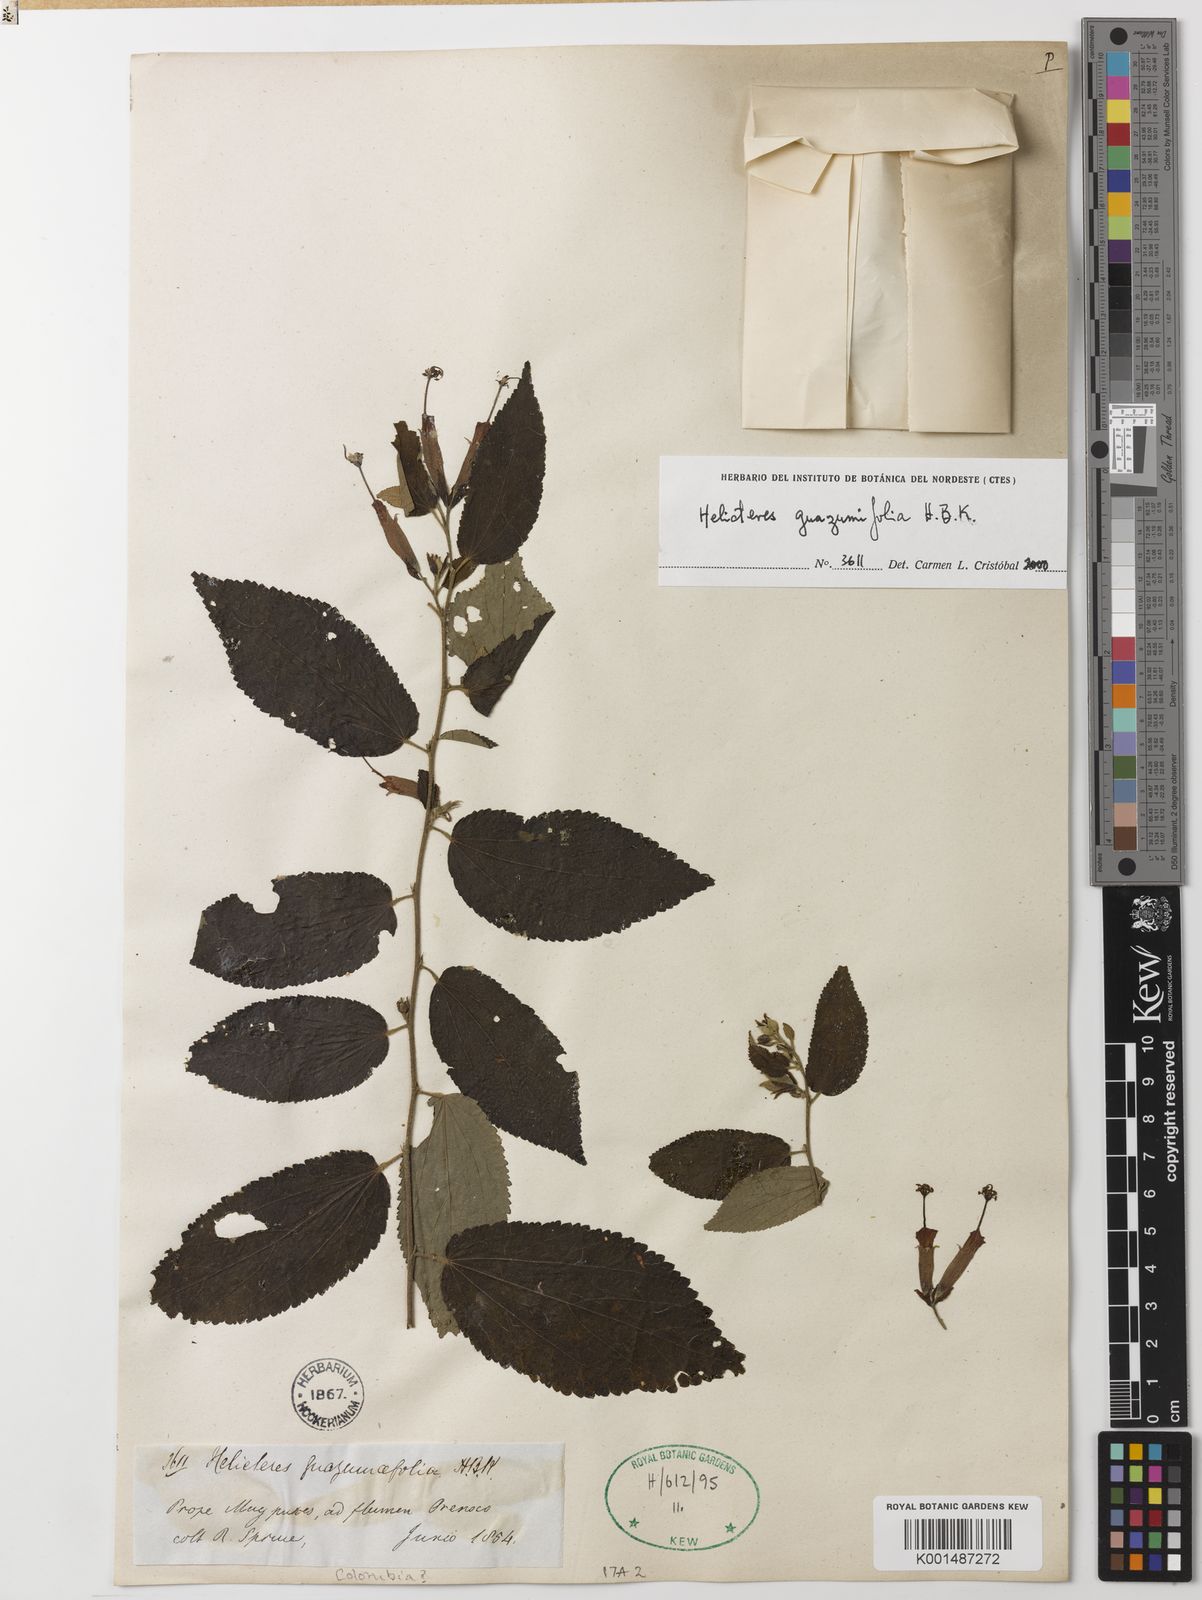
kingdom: Plantae
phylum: Tracheophyta
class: Magnoliopsida
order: Malvales
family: Malvaceae
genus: Helicteres
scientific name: Helicteres guazumifolia
